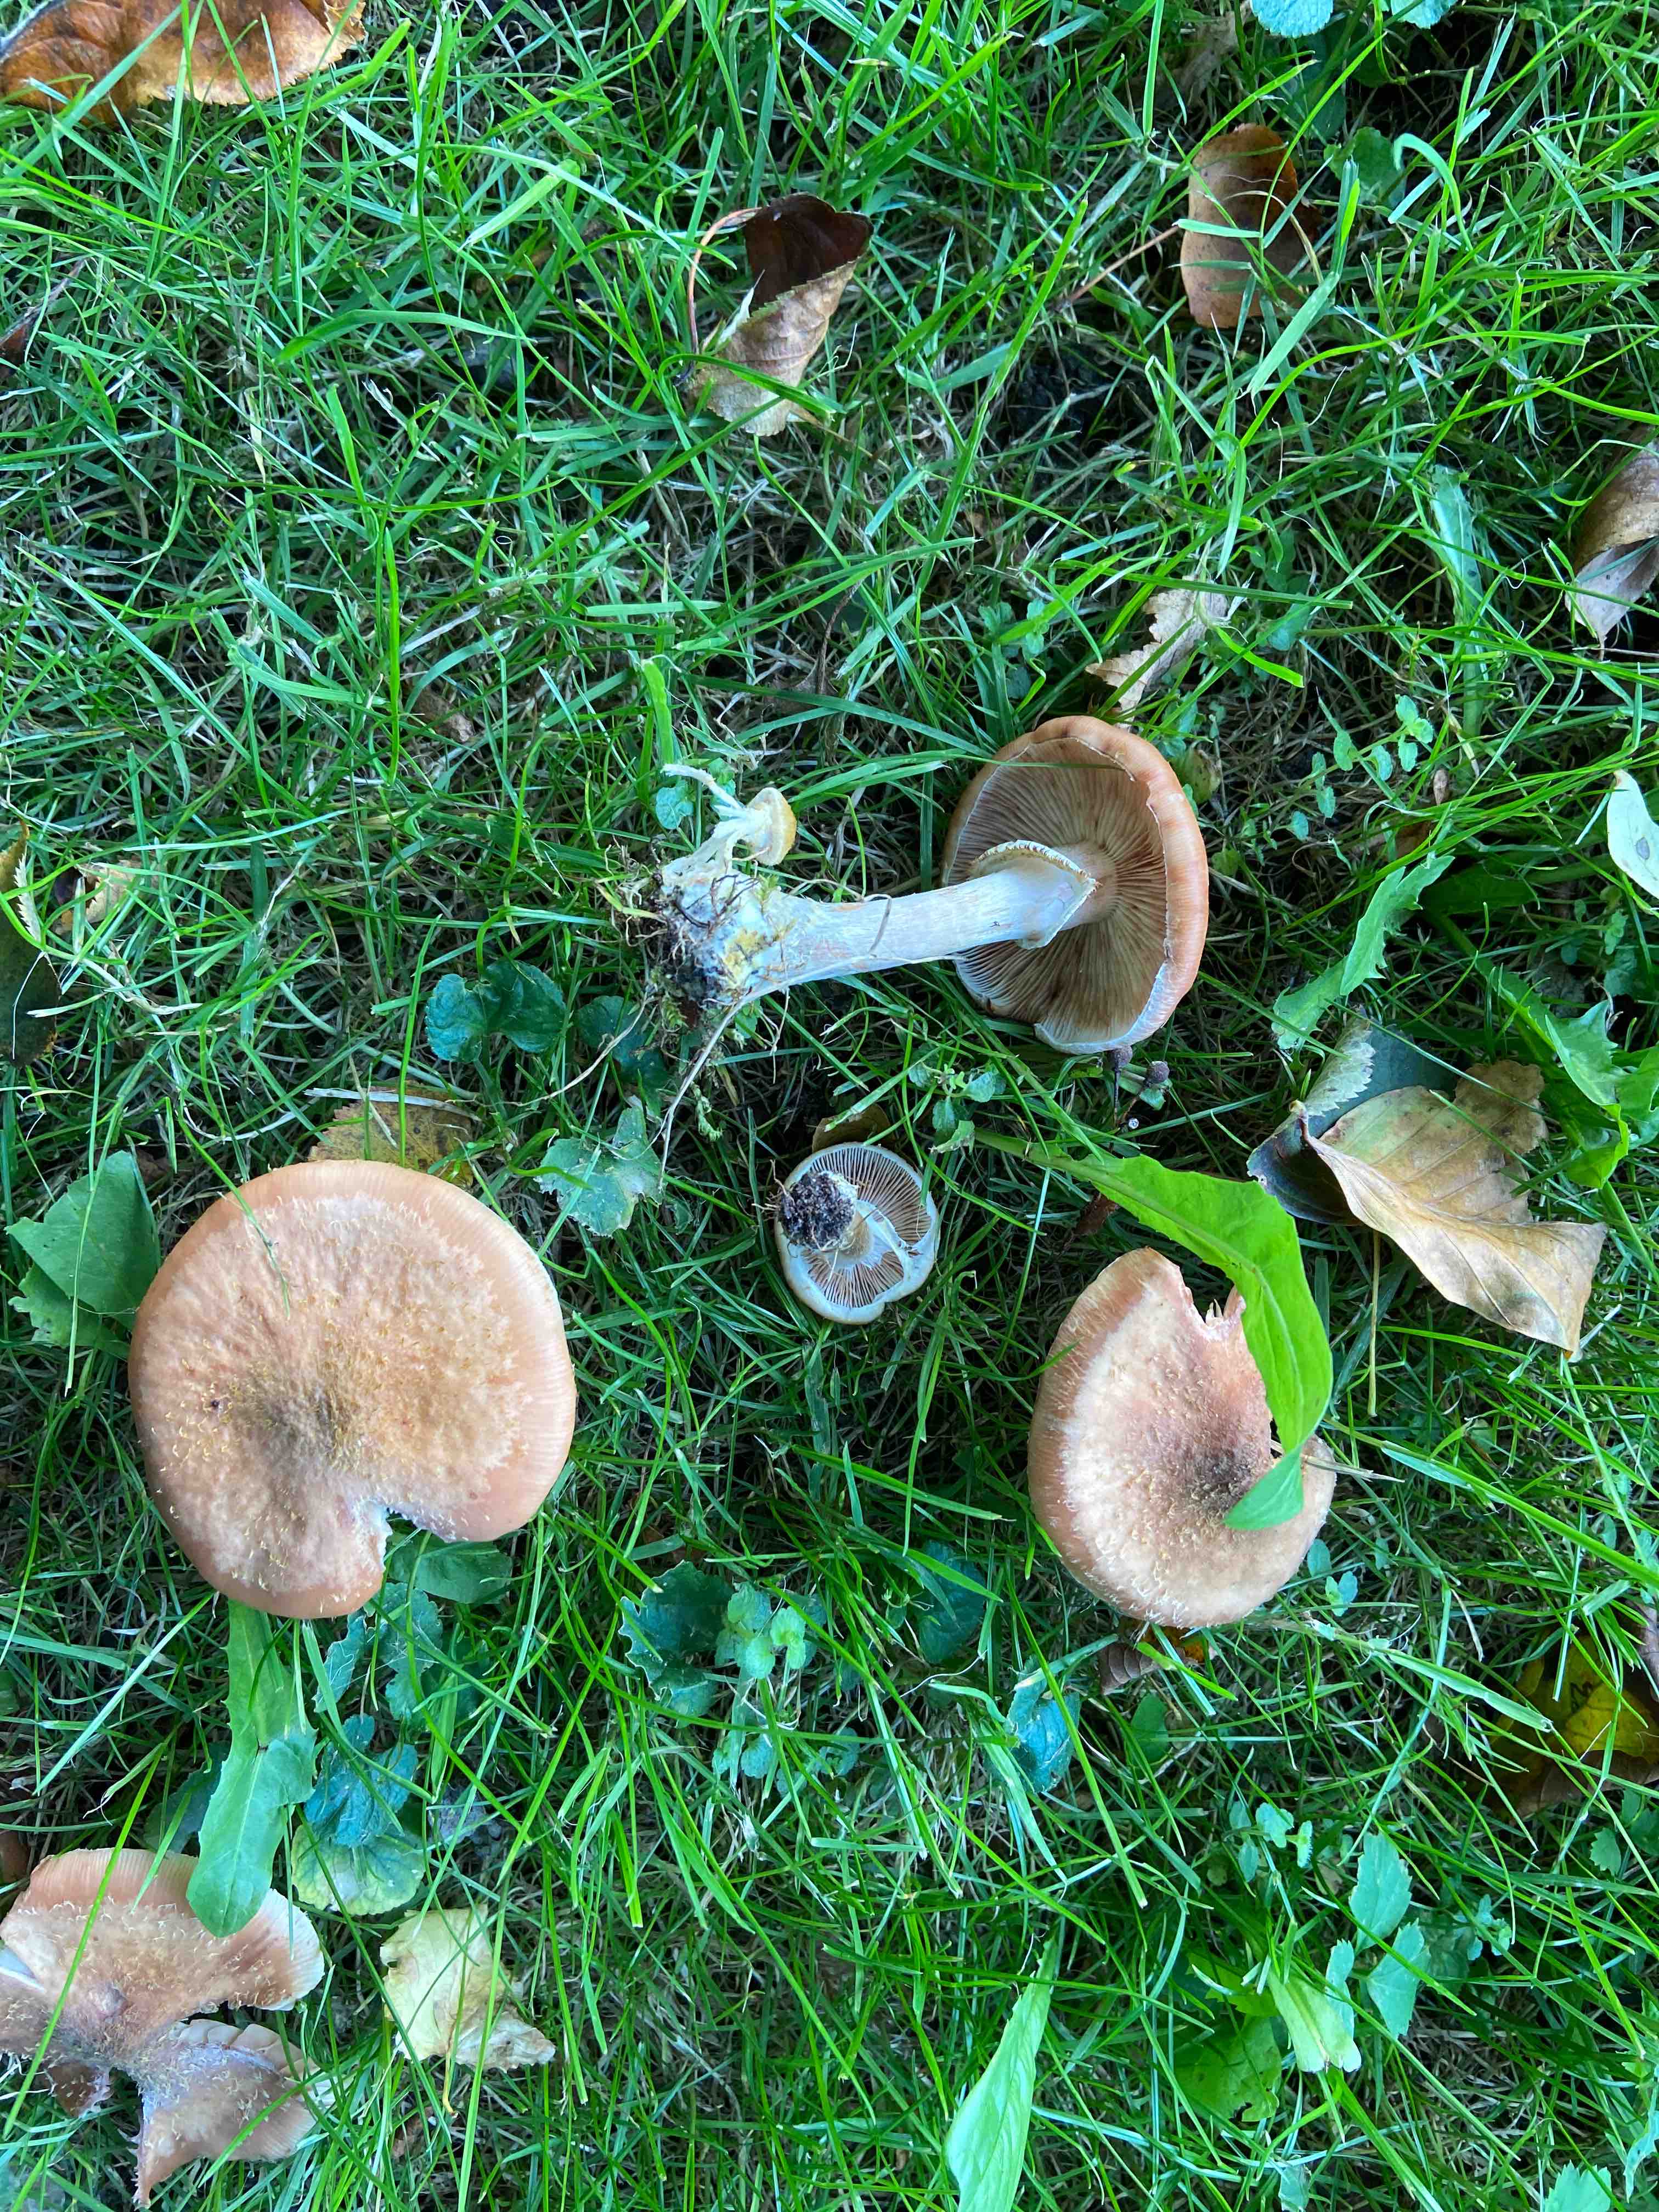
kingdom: Fungi
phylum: Basidiomycota
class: Agaricomycetes
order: Agaricales
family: Physalacriaceae
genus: Armillaria
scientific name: Armillaria lutea
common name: køllestokket honningsvamp
